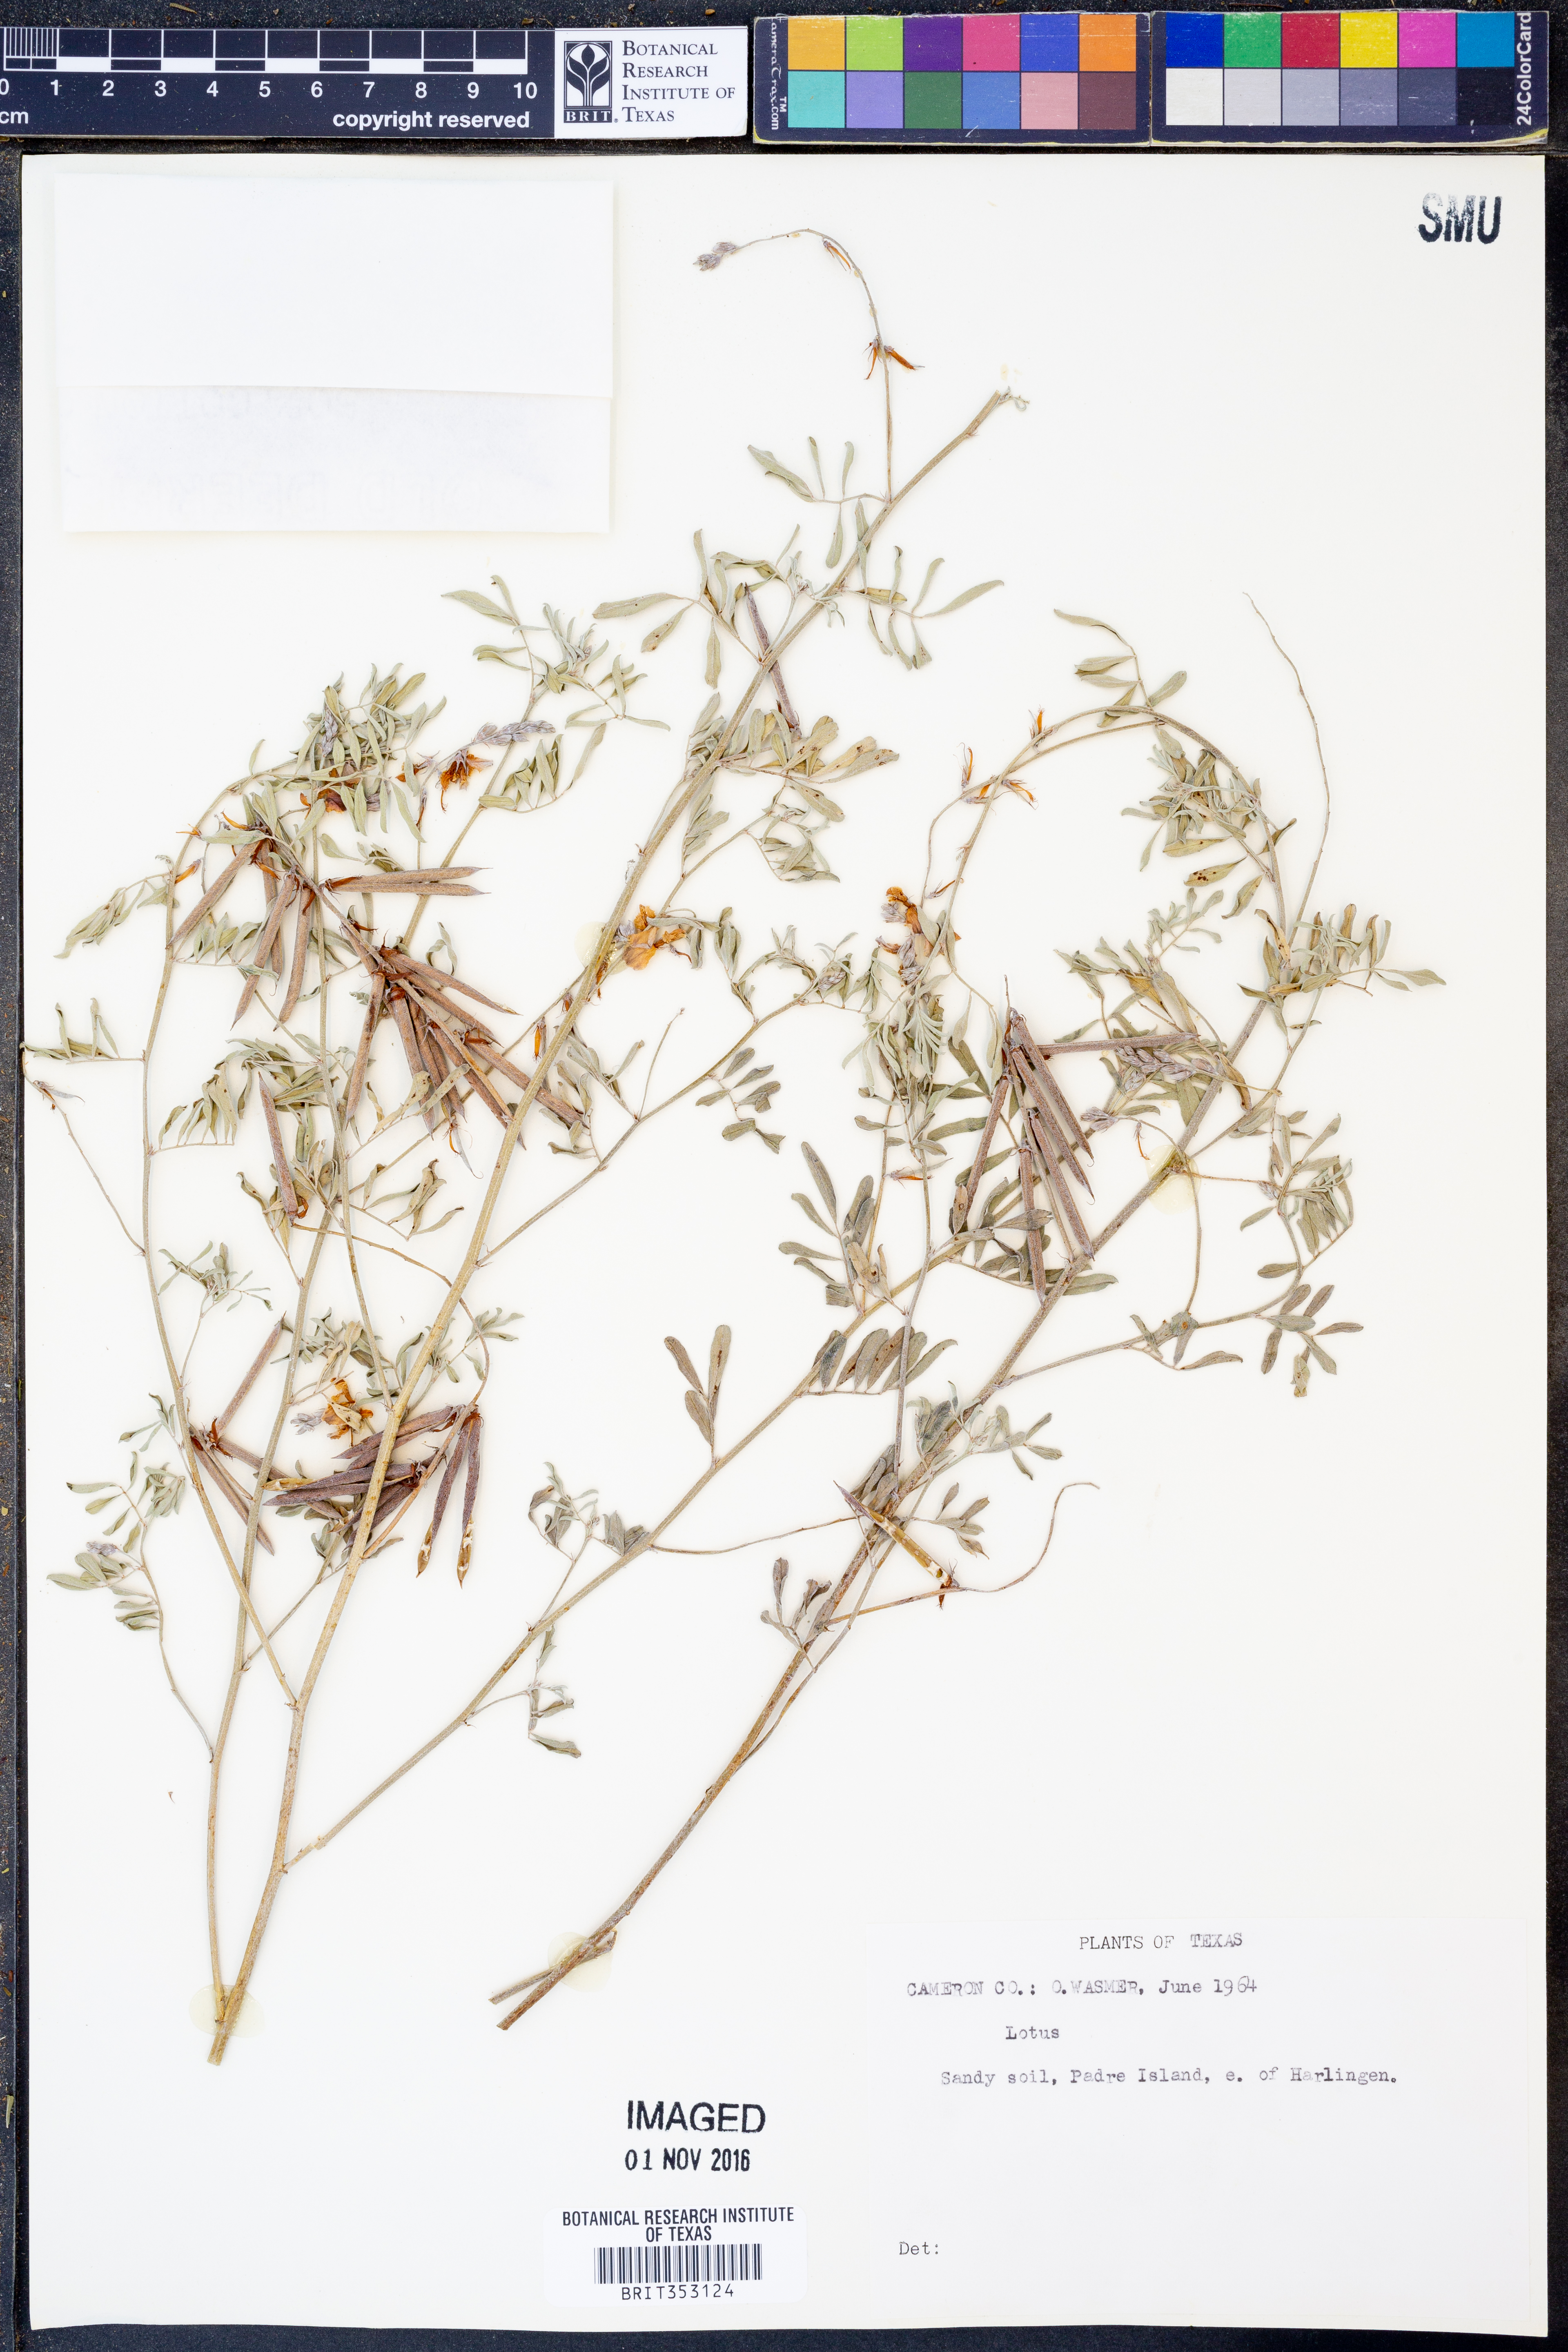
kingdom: Plantae
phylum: Tracheophyta
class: Magnoliopsida
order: Fabales
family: Fabaceae
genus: Lotus
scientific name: Lotus
